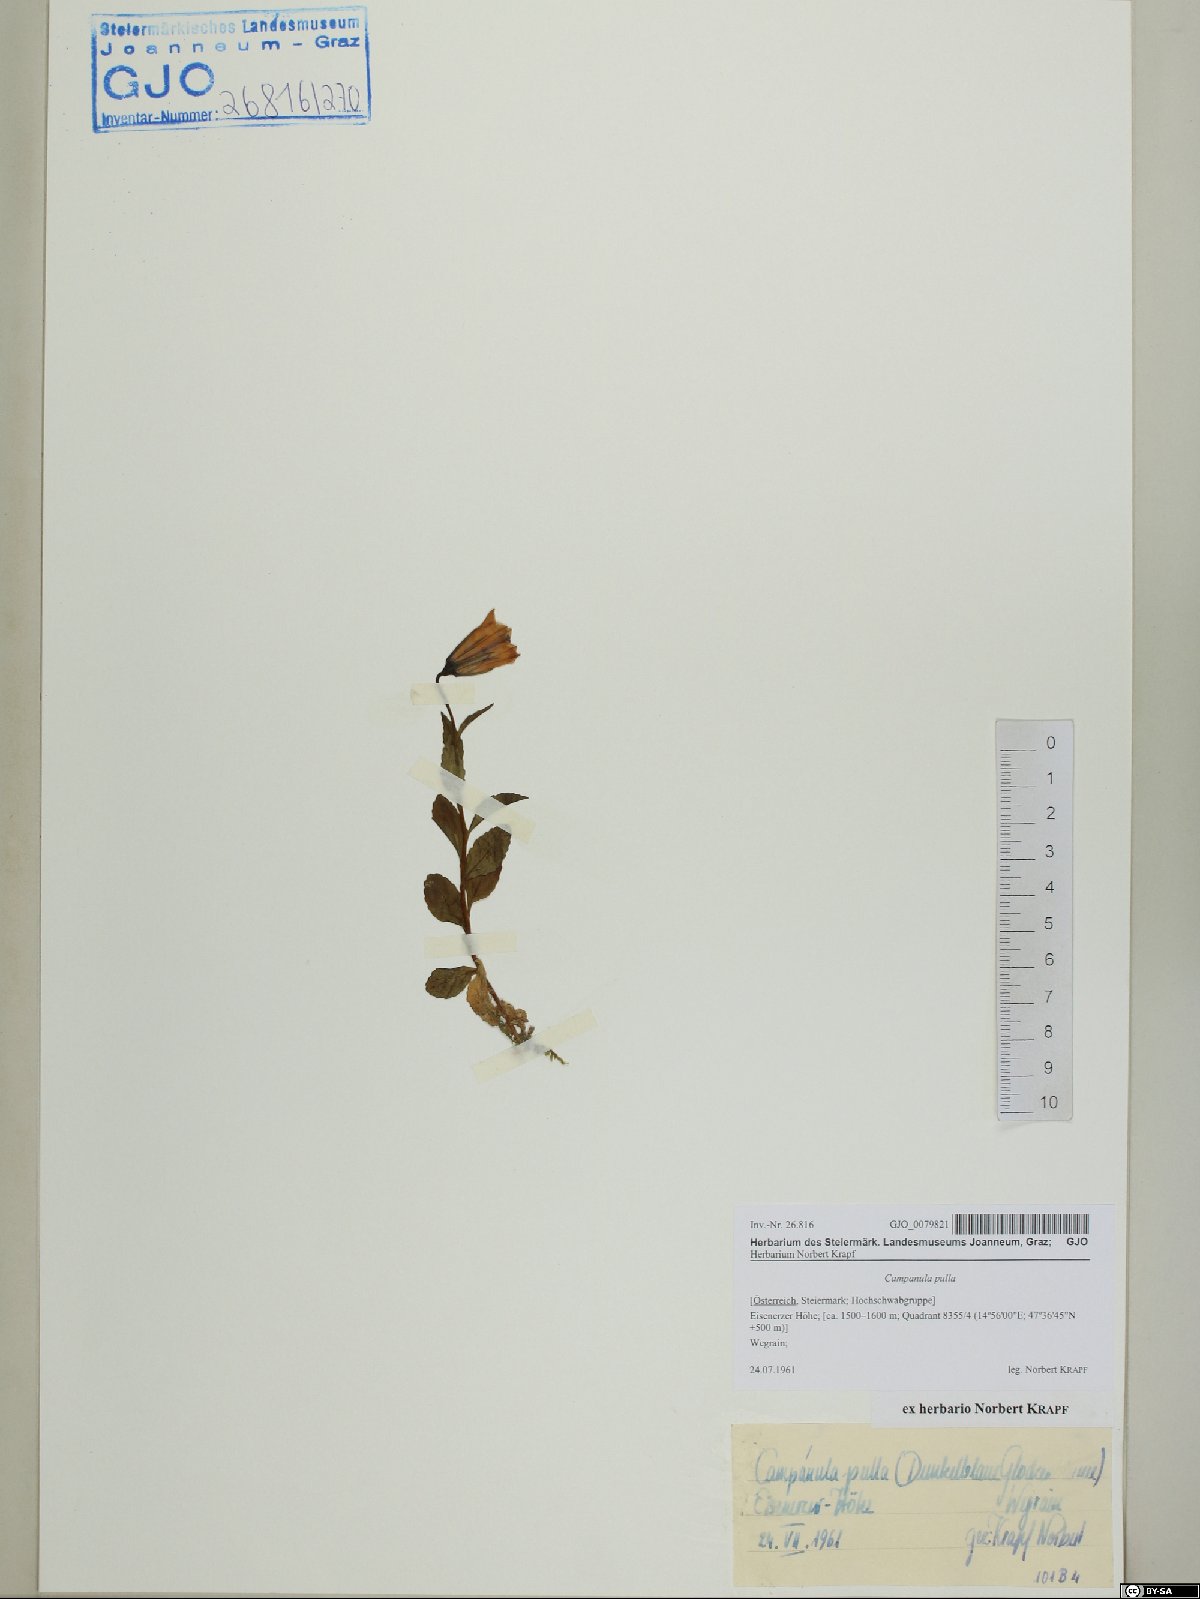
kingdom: Plantae
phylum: Tracheophyta
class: Magnoliopsida
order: Asterales
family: Campanulaceae
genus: Campanula
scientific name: Campanula pulla
